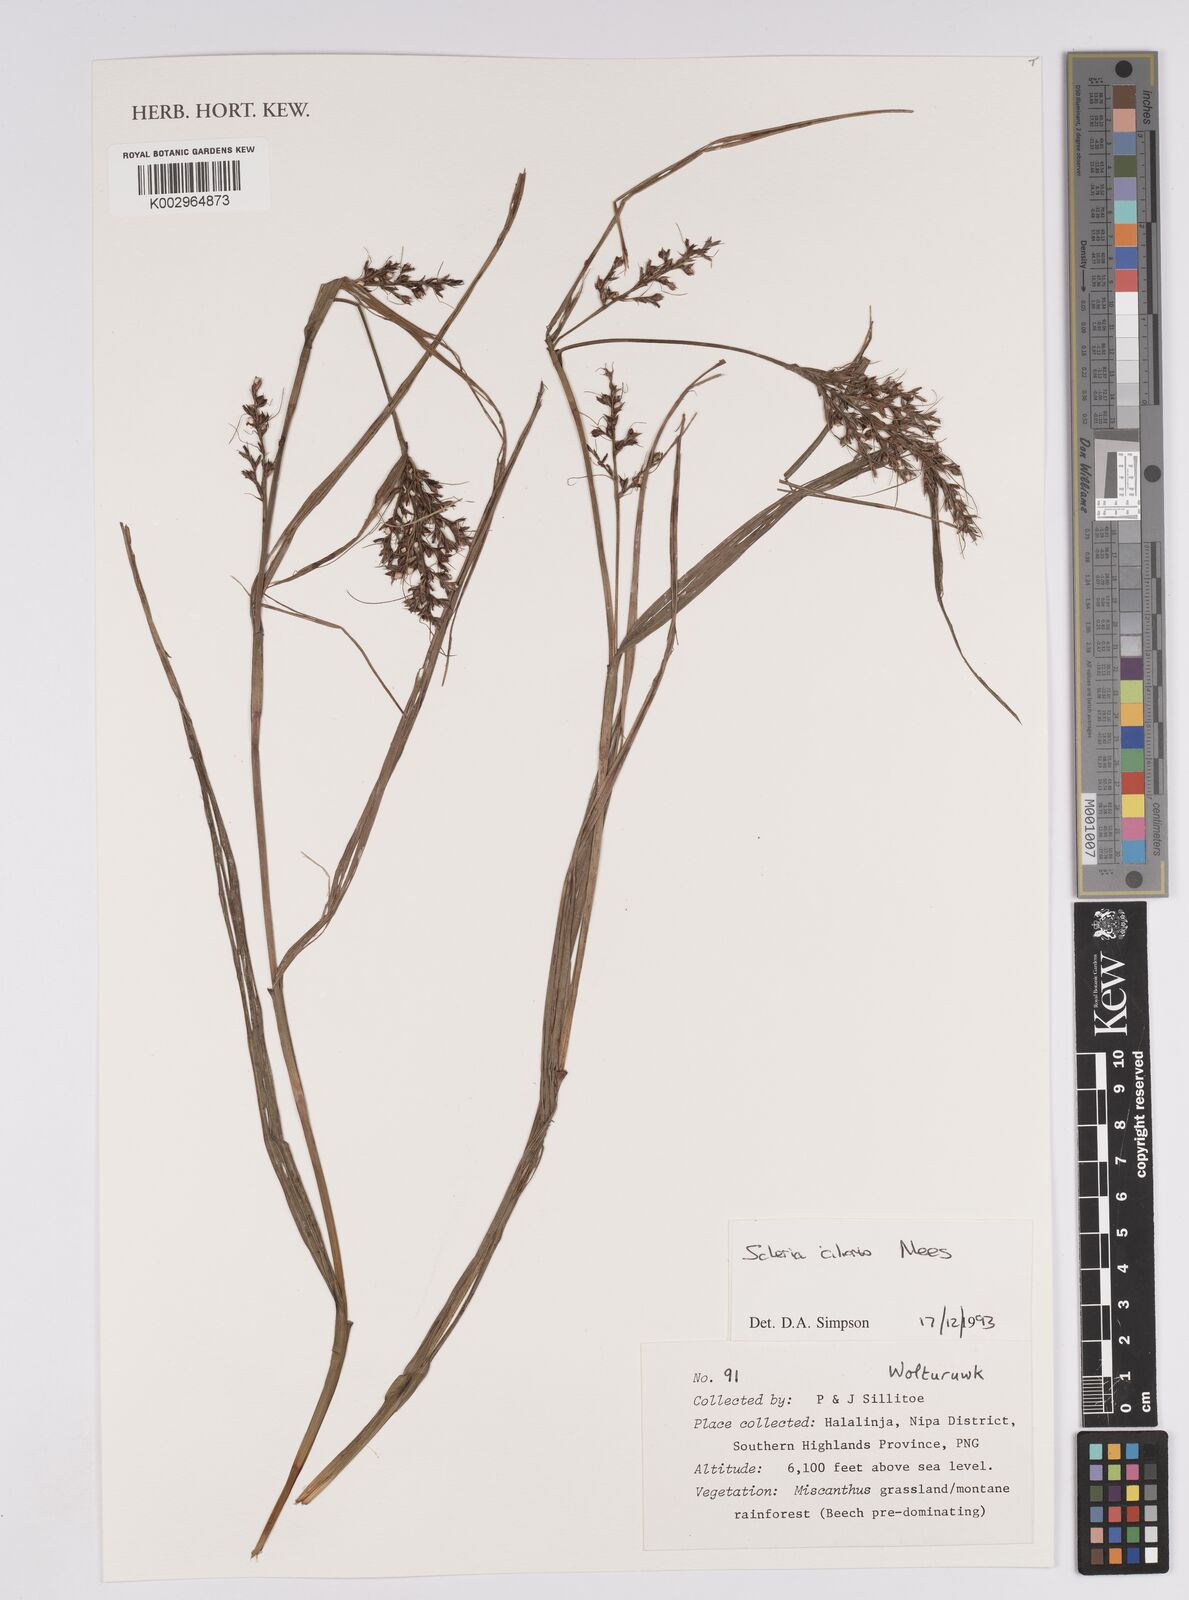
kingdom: Plantae
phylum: Tracheophyta
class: Liliopsida
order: Poales
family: Cyperaceae
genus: Scleria
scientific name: Scleria ciliaris
